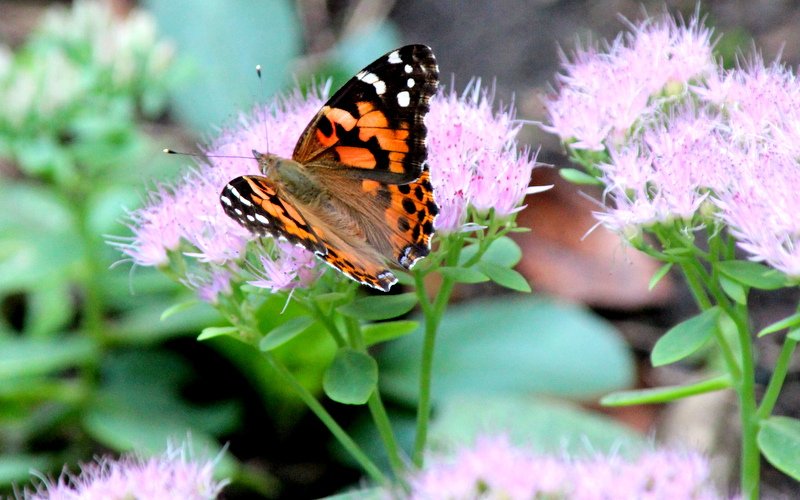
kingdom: Animalia
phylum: Arthropoda
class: Insecta
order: Lepidoptera
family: Nymphalidae
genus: Vanessa
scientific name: Vanessa cardui
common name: Painted Lady
